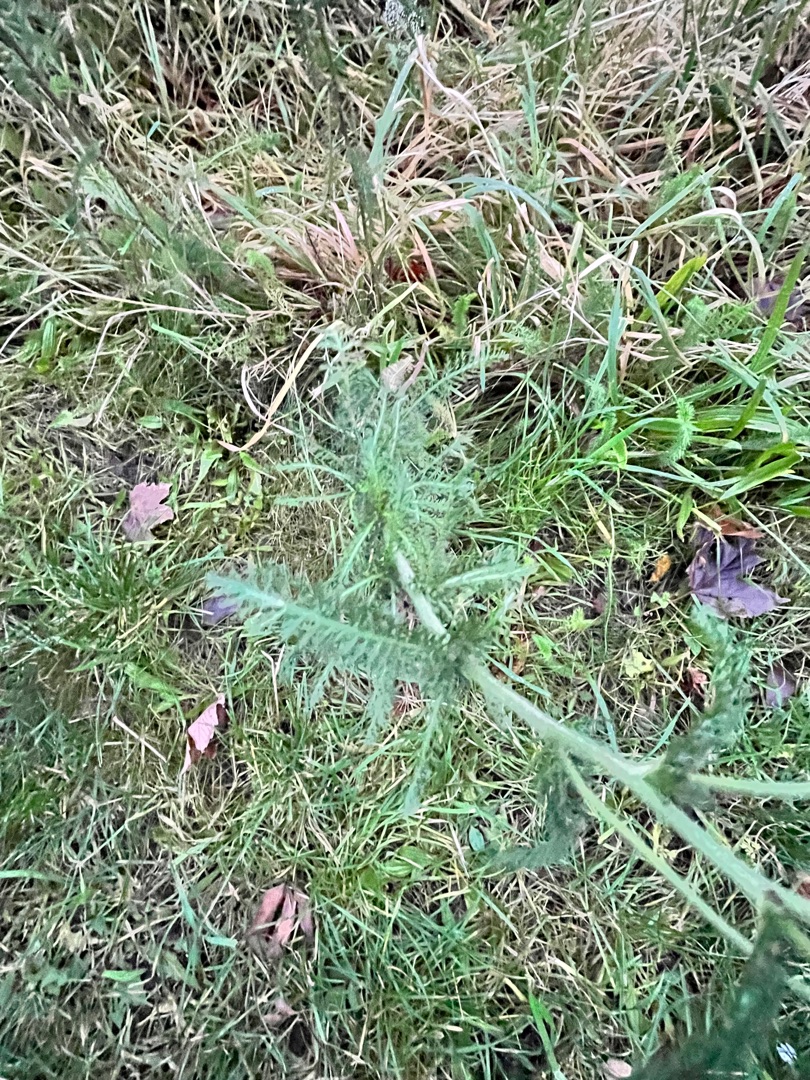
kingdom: Plantae
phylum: Tracheophyta
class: Magnoliopsida
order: Asterales
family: Asteraceae
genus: Achillea
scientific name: Achillea millefolium
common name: Almindelig røllike
